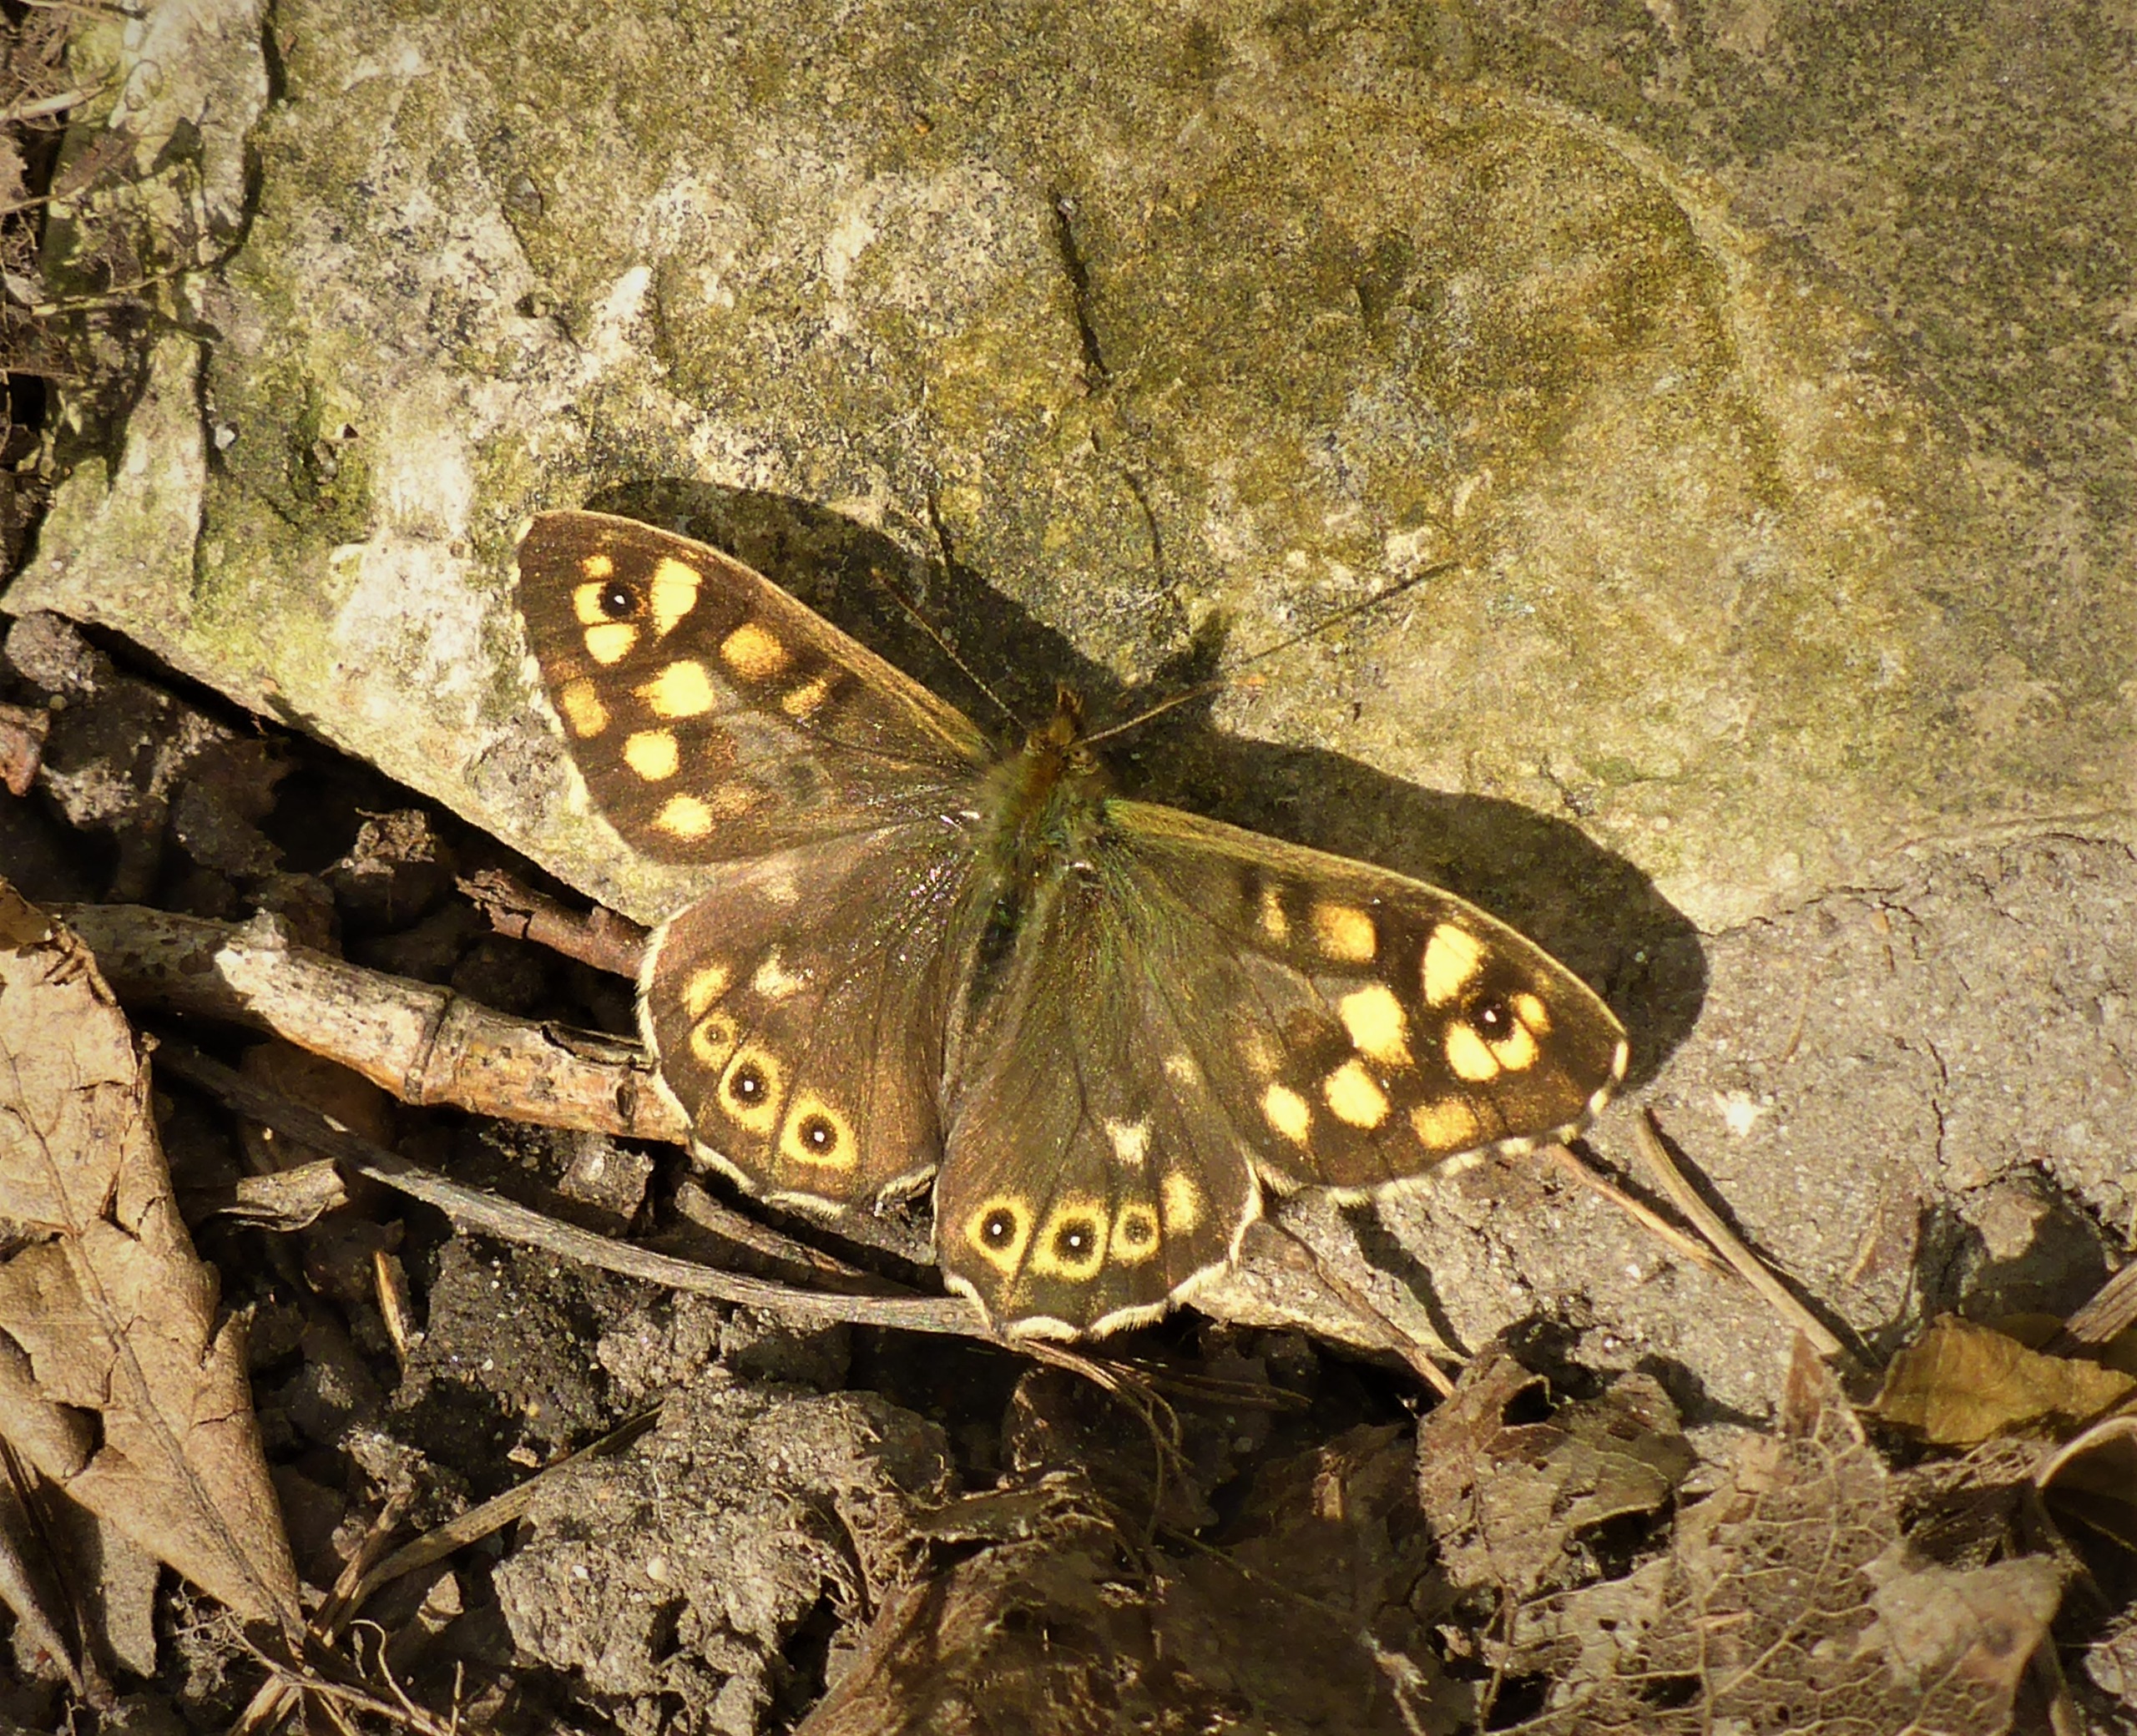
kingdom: Animalia
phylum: Arthropoda
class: Insecta
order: Lepidoptera
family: Nymphalidae
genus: Pararge
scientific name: Pararge aegeria
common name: Skovrandøje
